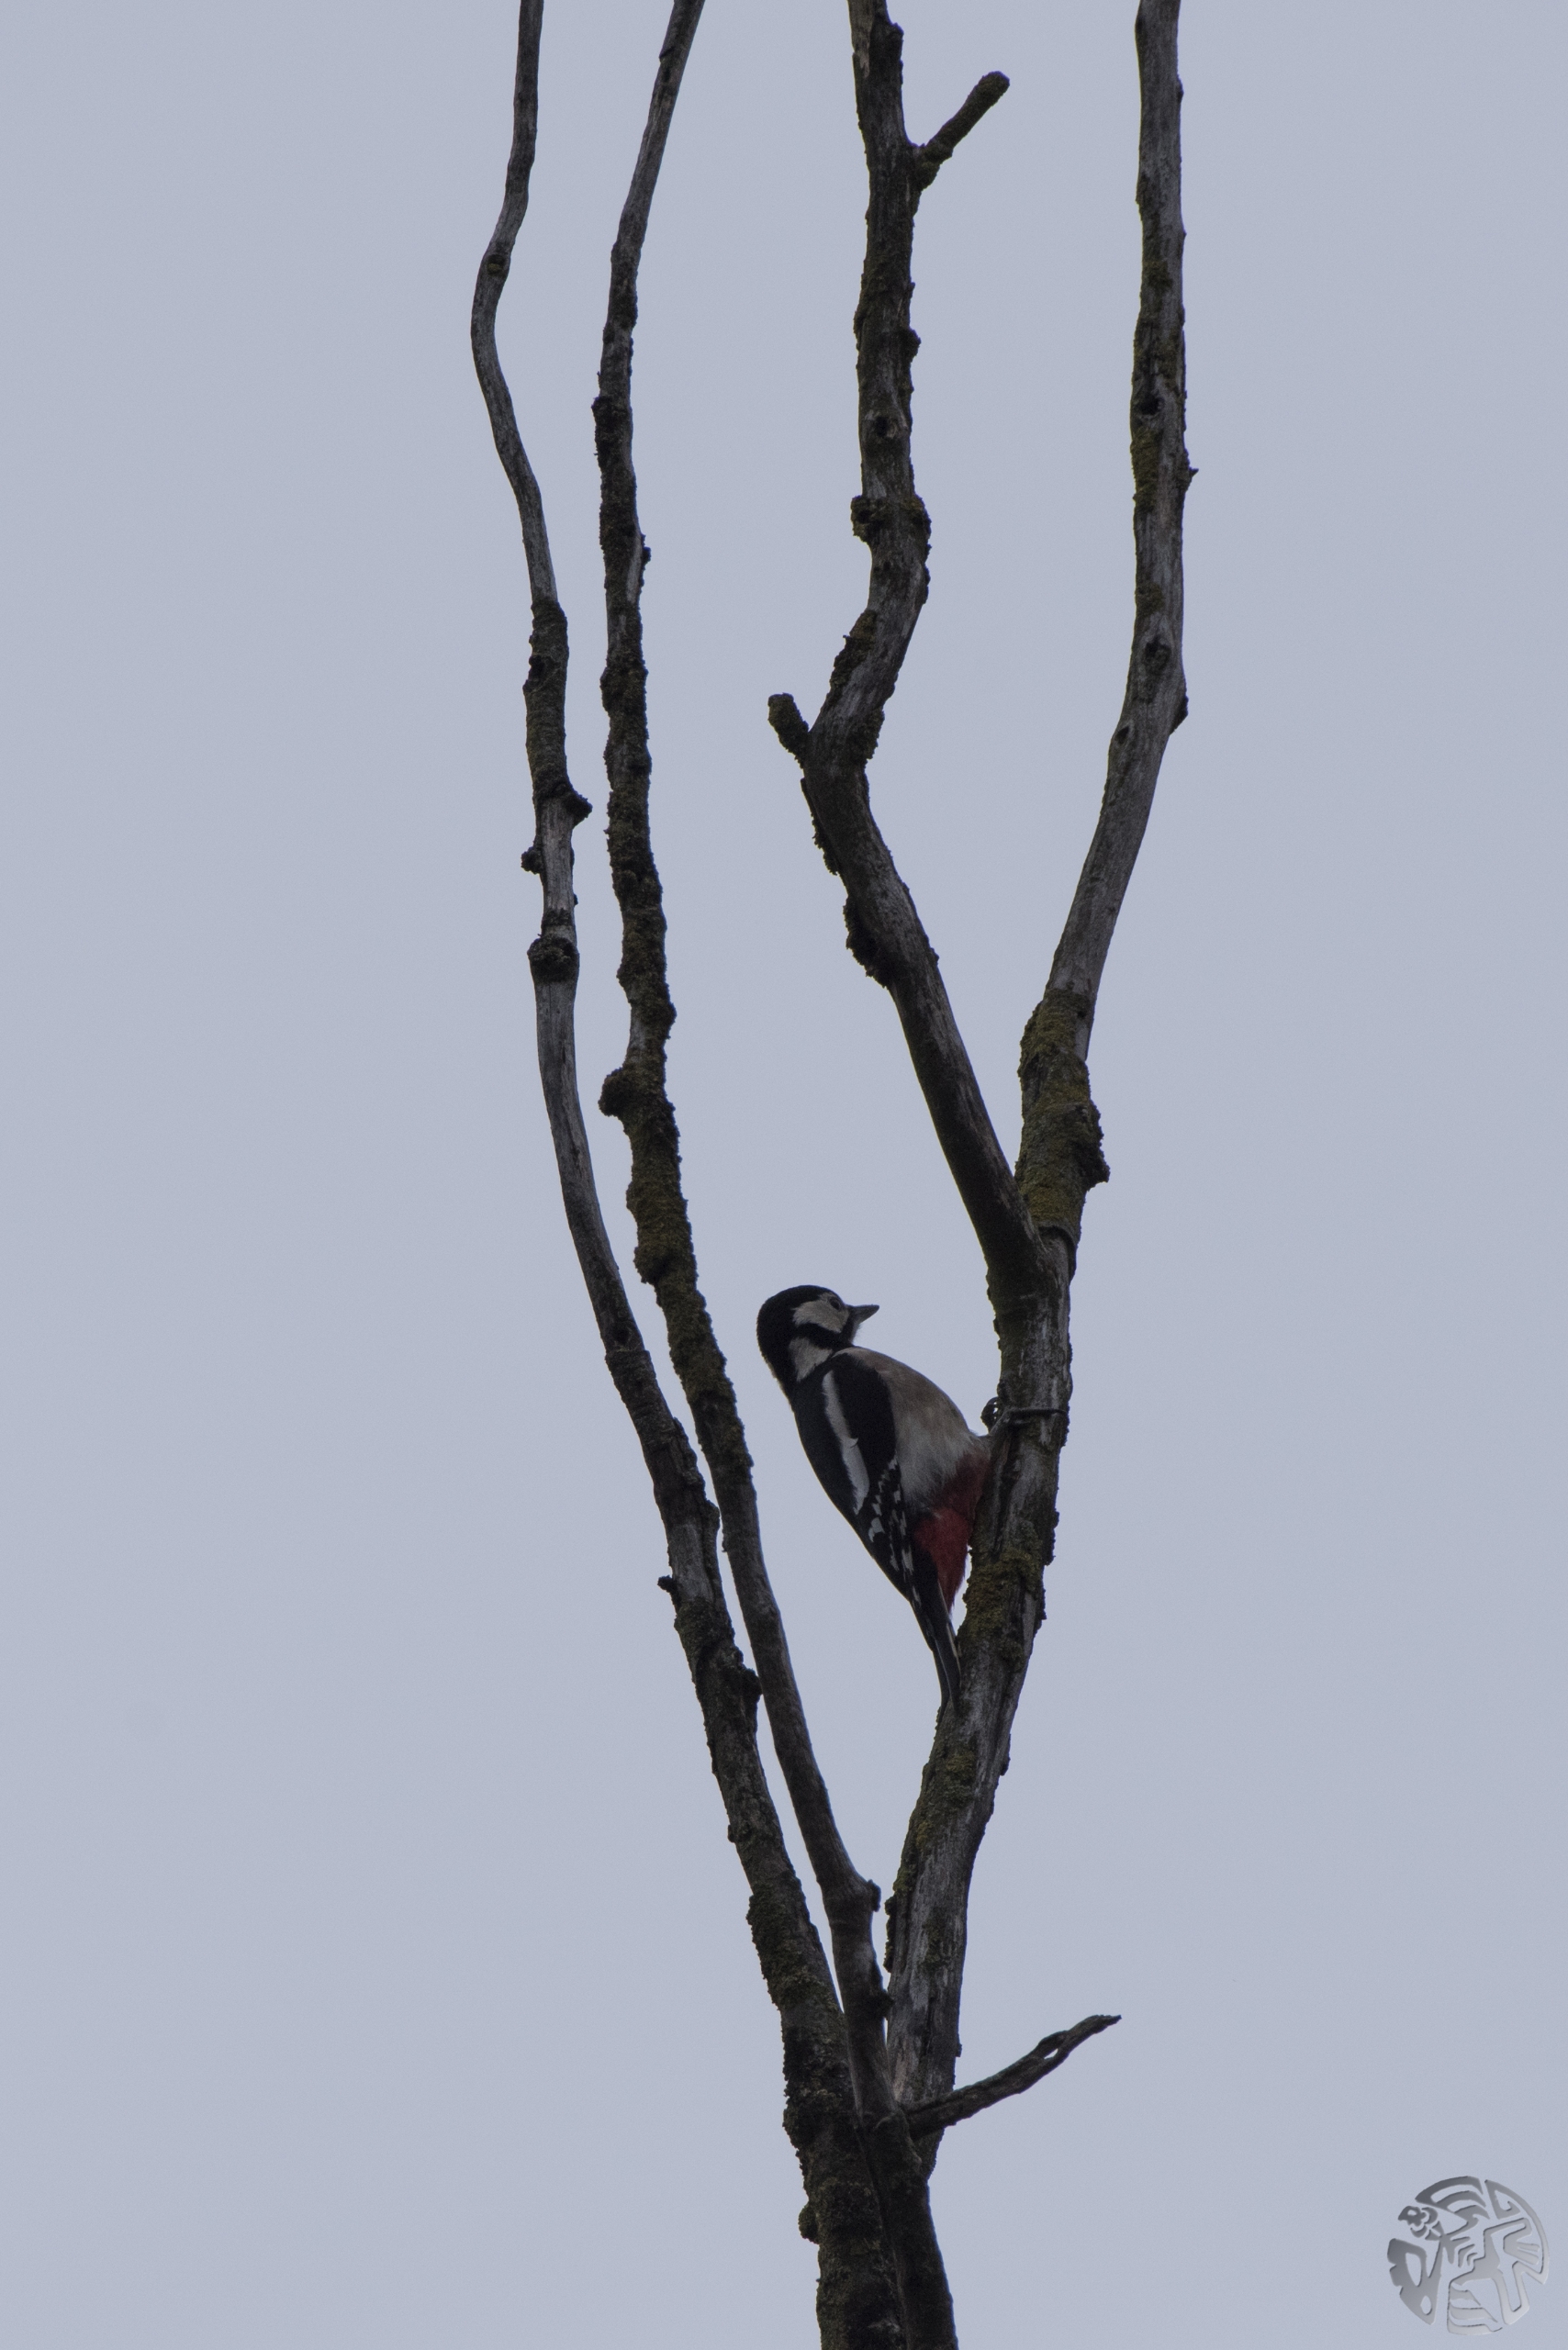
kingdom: Animalia
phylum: Chordata
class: Aves
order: Piciformes
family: Picidae
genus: Dendrocopos
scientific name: Dendrocopos major
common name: Stor flagspætte
